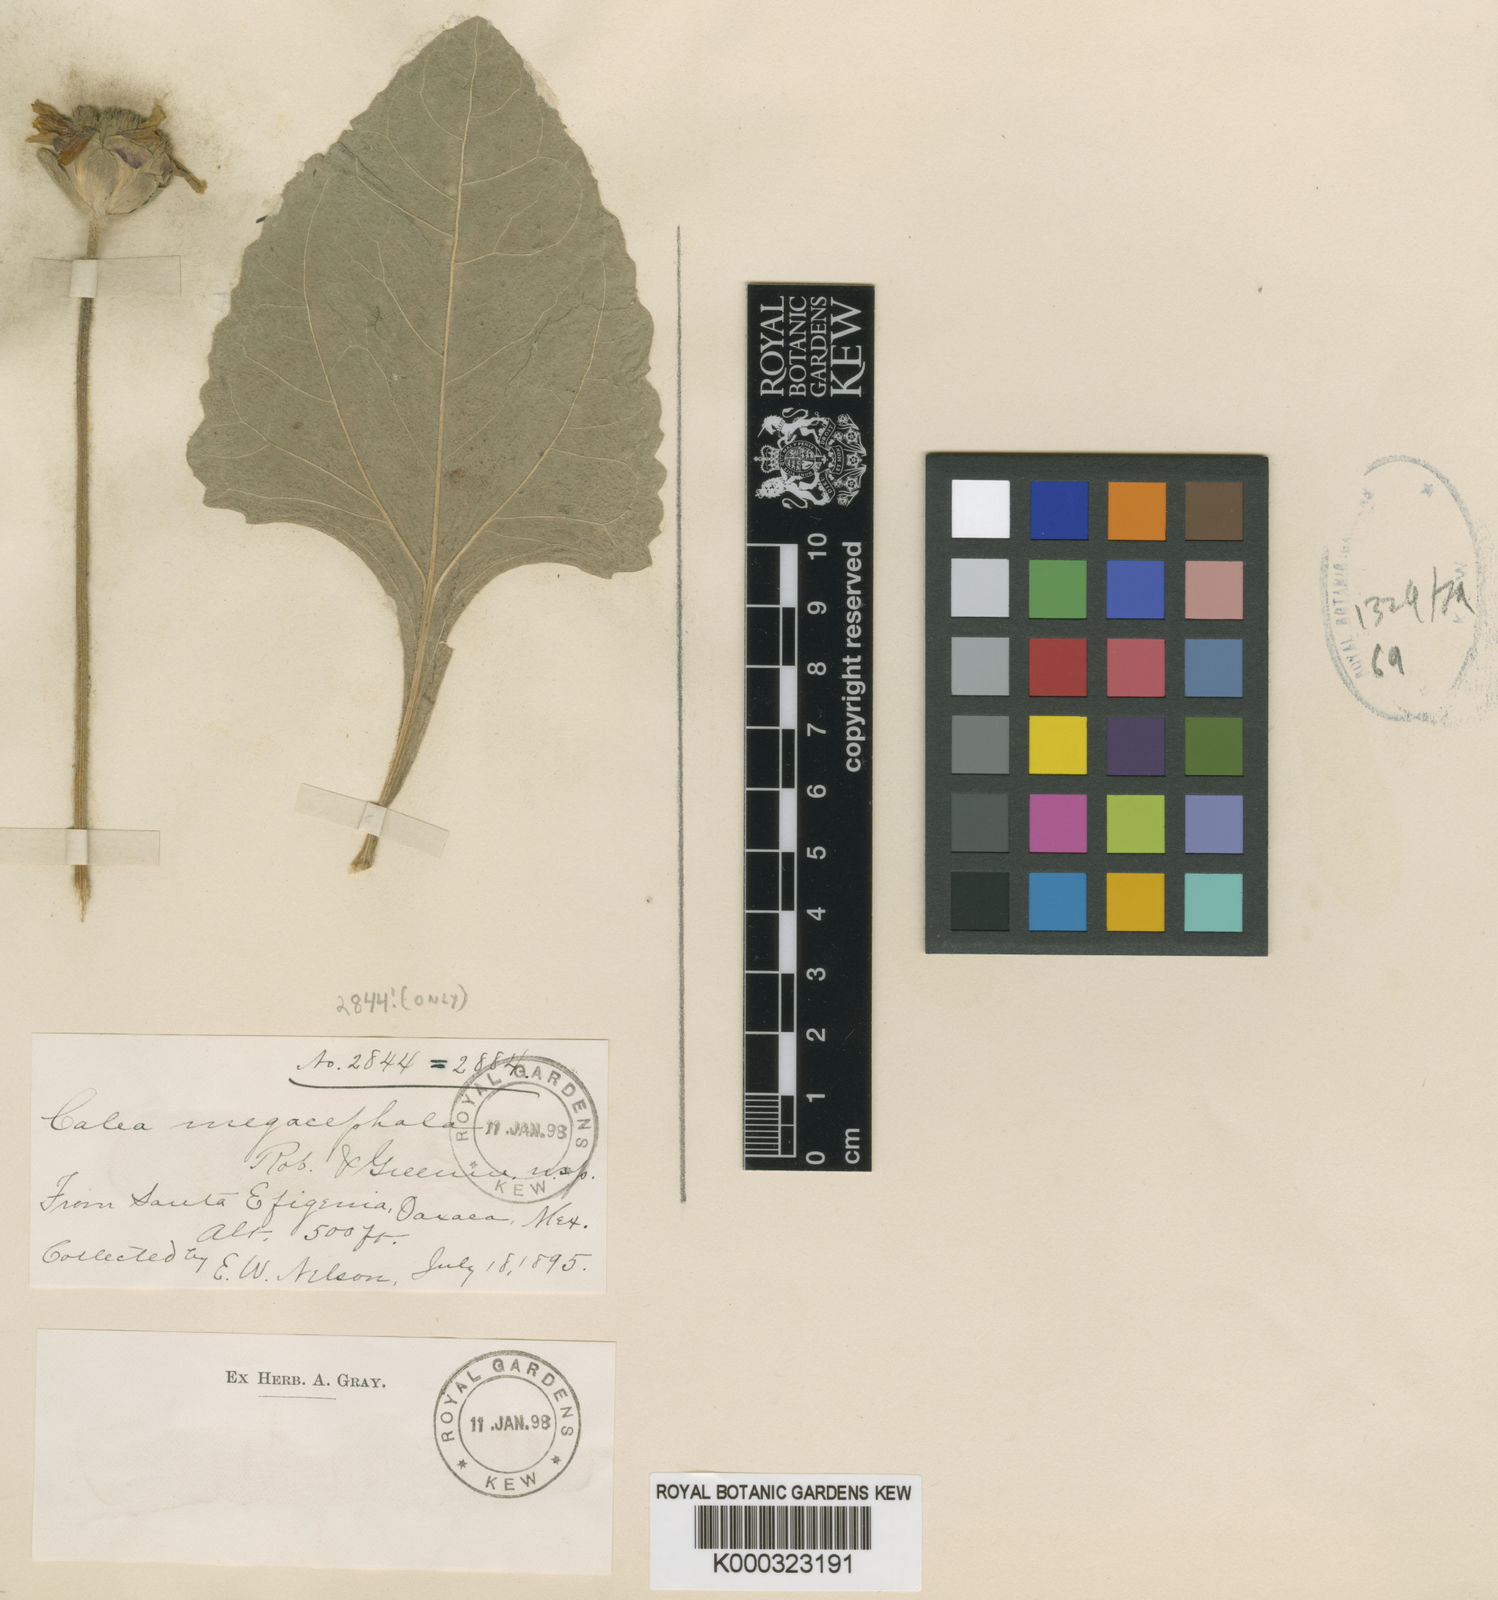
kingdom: Plantae
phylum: Tracheophyta
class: Magnoliopsida
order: Asterales
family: Asteraceae
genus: Calea
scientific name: Calea megacephala
